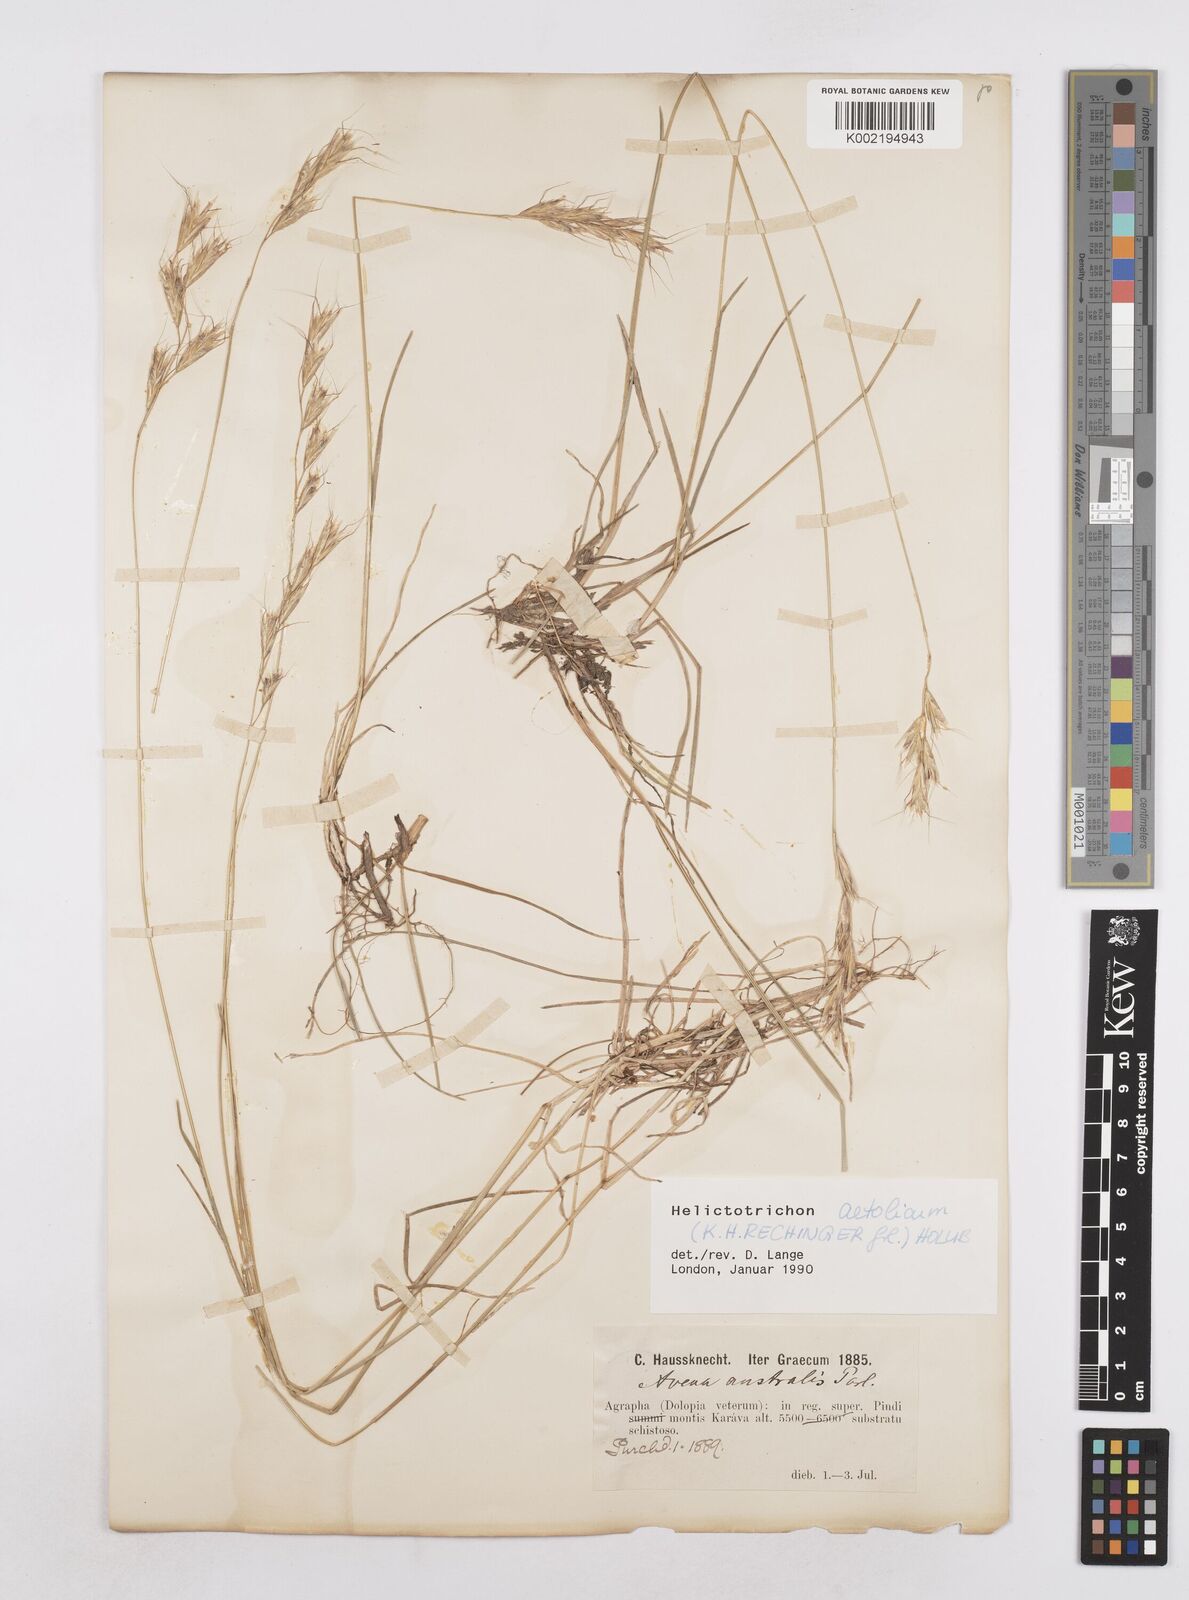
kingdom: Plantae
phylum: Tracheophyta
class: Liliopsida
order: Poales
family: Poaceae
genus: Helictochloa
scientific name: Helictochloa aetolica
